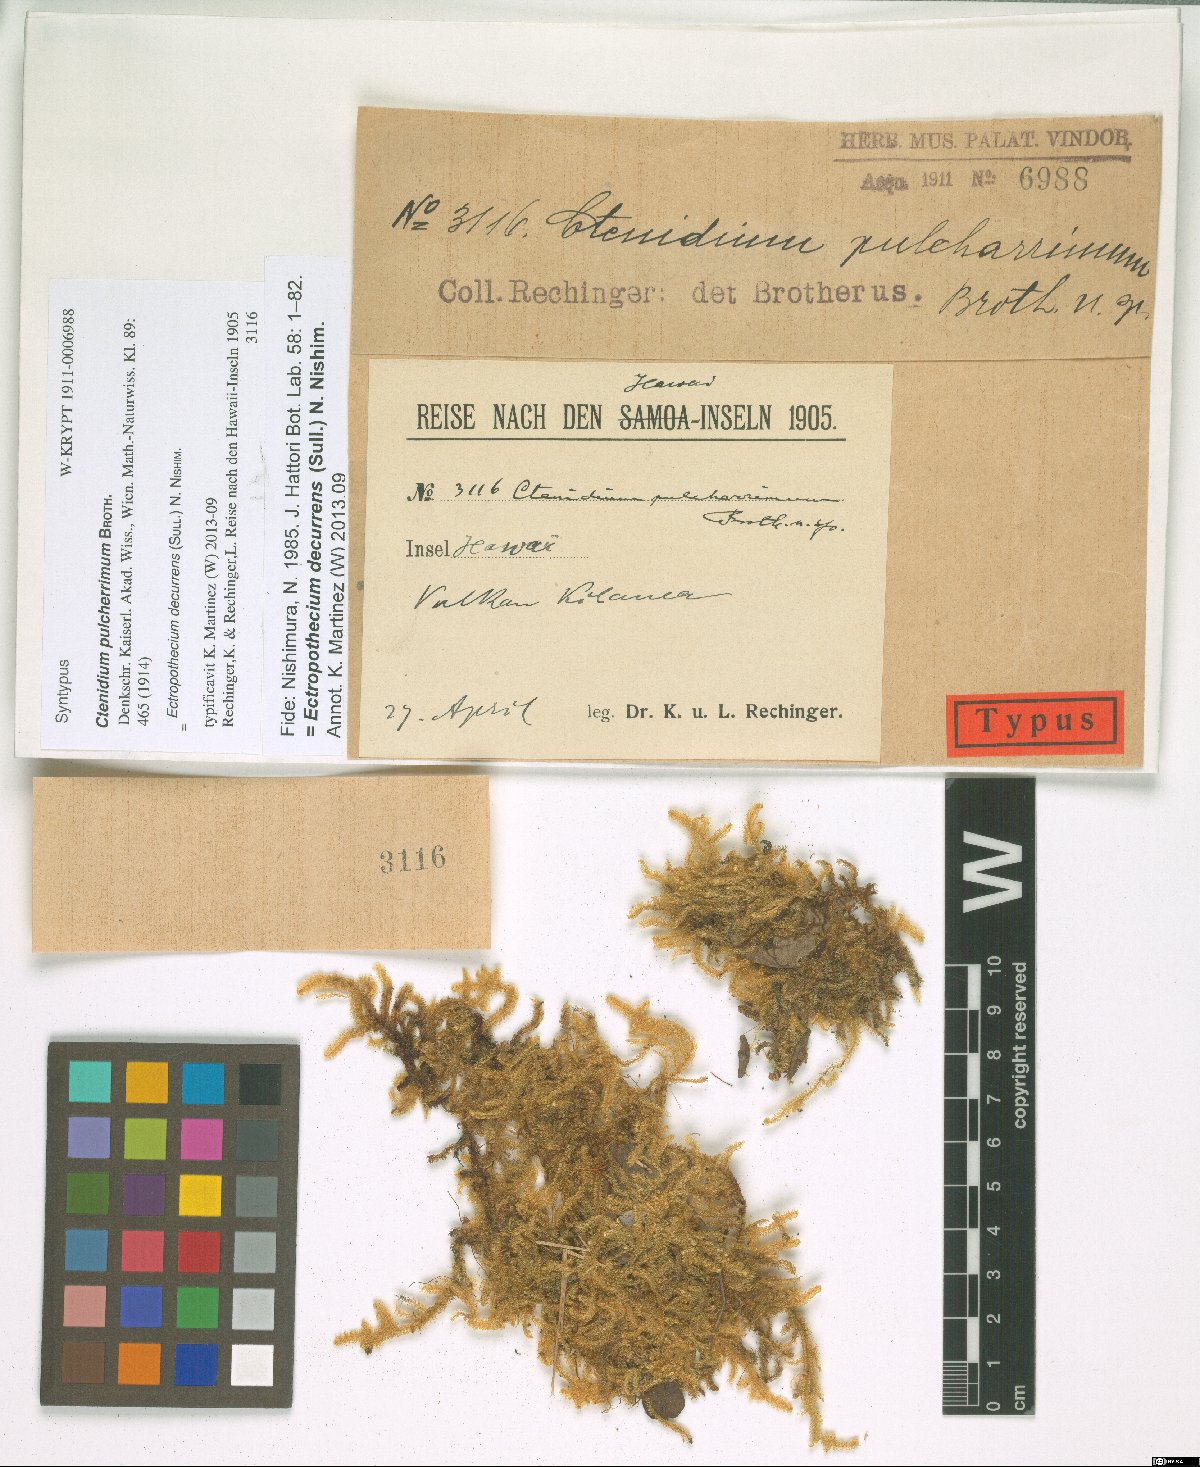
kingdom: Plantae
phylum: Bryophyta
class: Bryopsida
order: Hypnales
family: Hypnaceae
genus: Ectropothecium
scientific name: Ectropothecium decurrens
